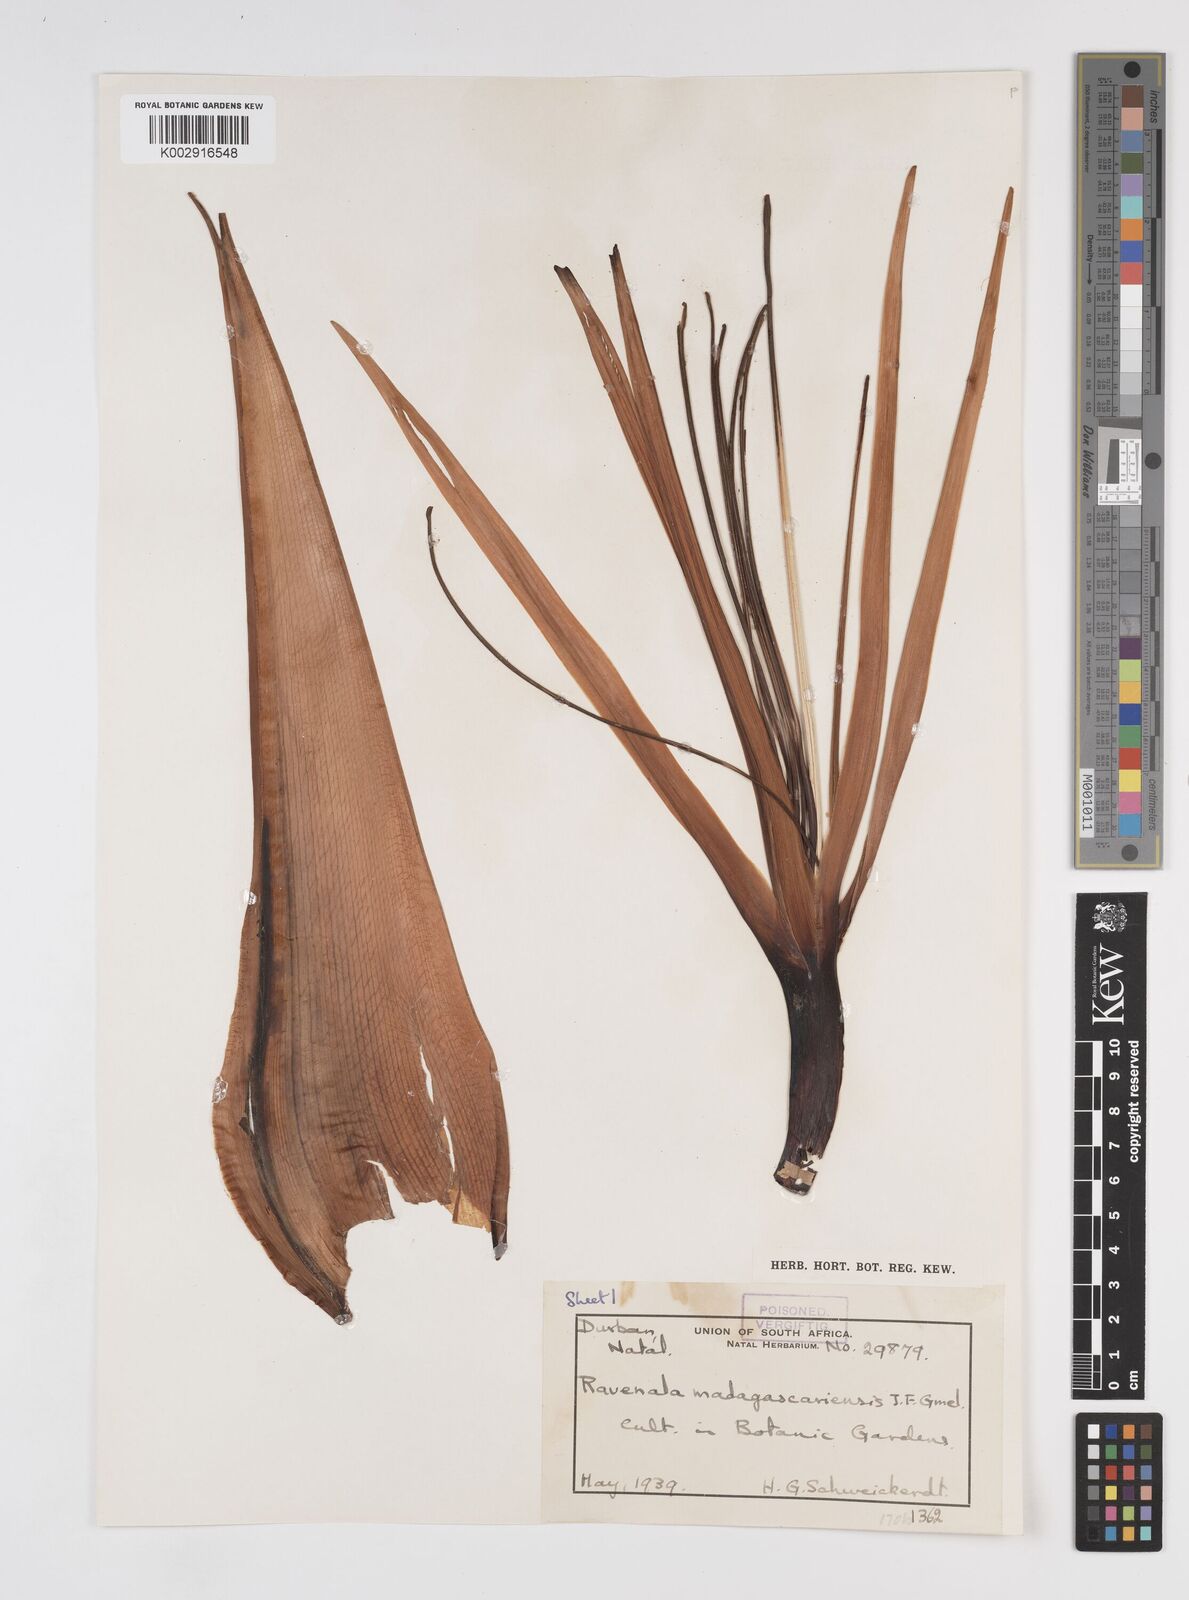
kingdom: Plantae
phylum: Tracheophyta
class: Liliopsida
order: Zingiberales
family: Strelitziaceae
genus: Ravenala
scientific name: Ravenala madagascariensis
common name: Traveler's-palm
